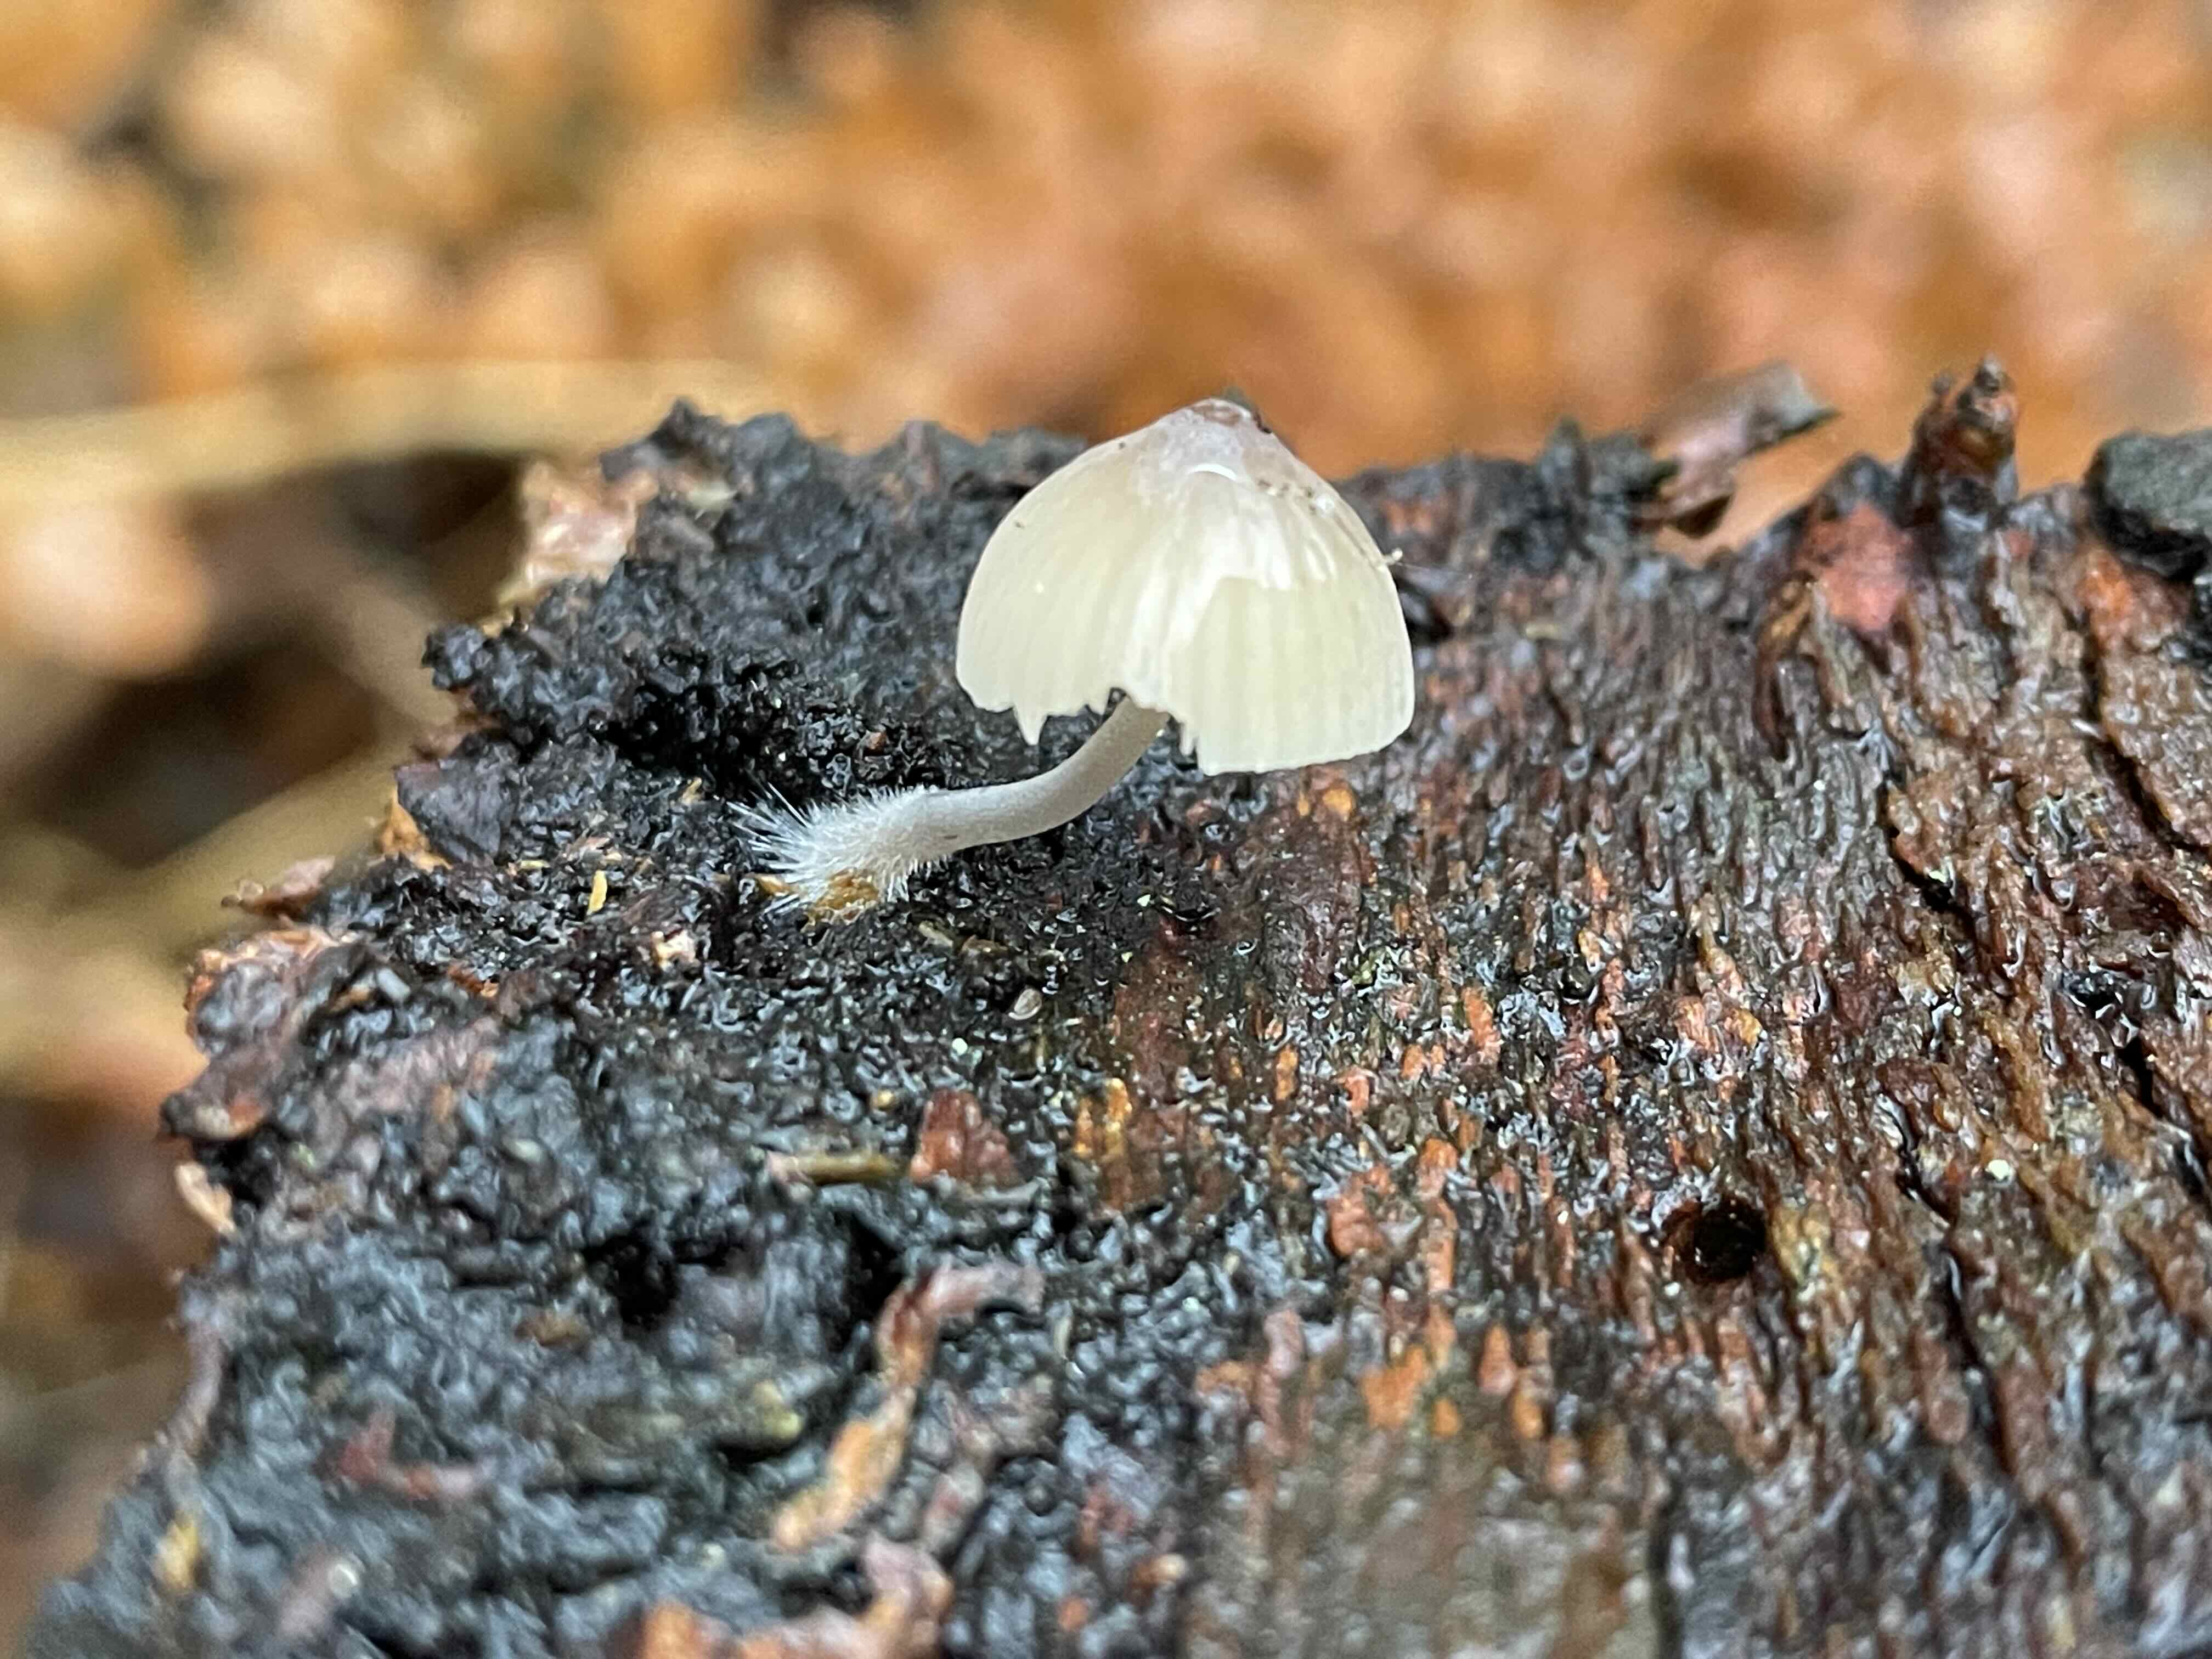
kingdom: Fungi
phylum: Basidiomycota
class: Agaricomycetes
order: Agaricales
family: Mycenaceae
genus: Mycena
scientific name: Mycena
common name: huesvamp
